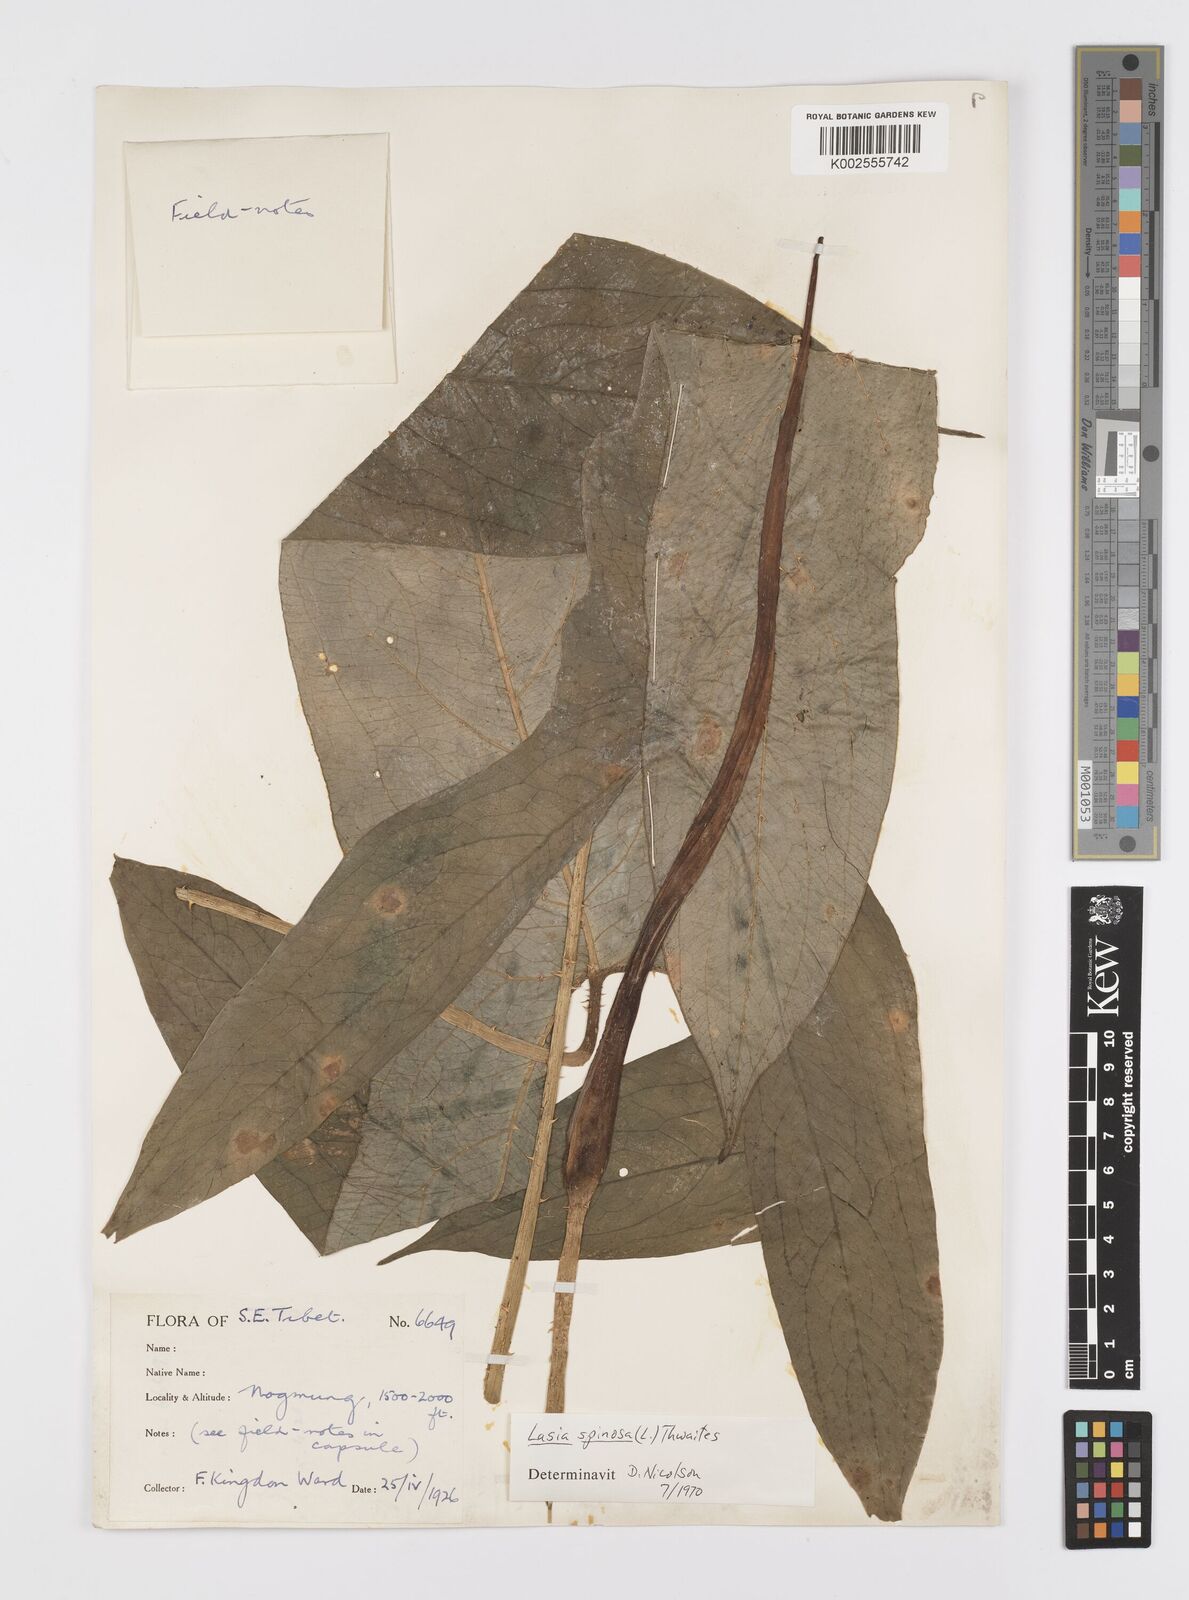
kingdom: Plantae
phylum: Tracheophyta
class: Liliopsida
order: Alismatales
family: Araceae
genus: Lasia
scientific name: Lasia spinosa
